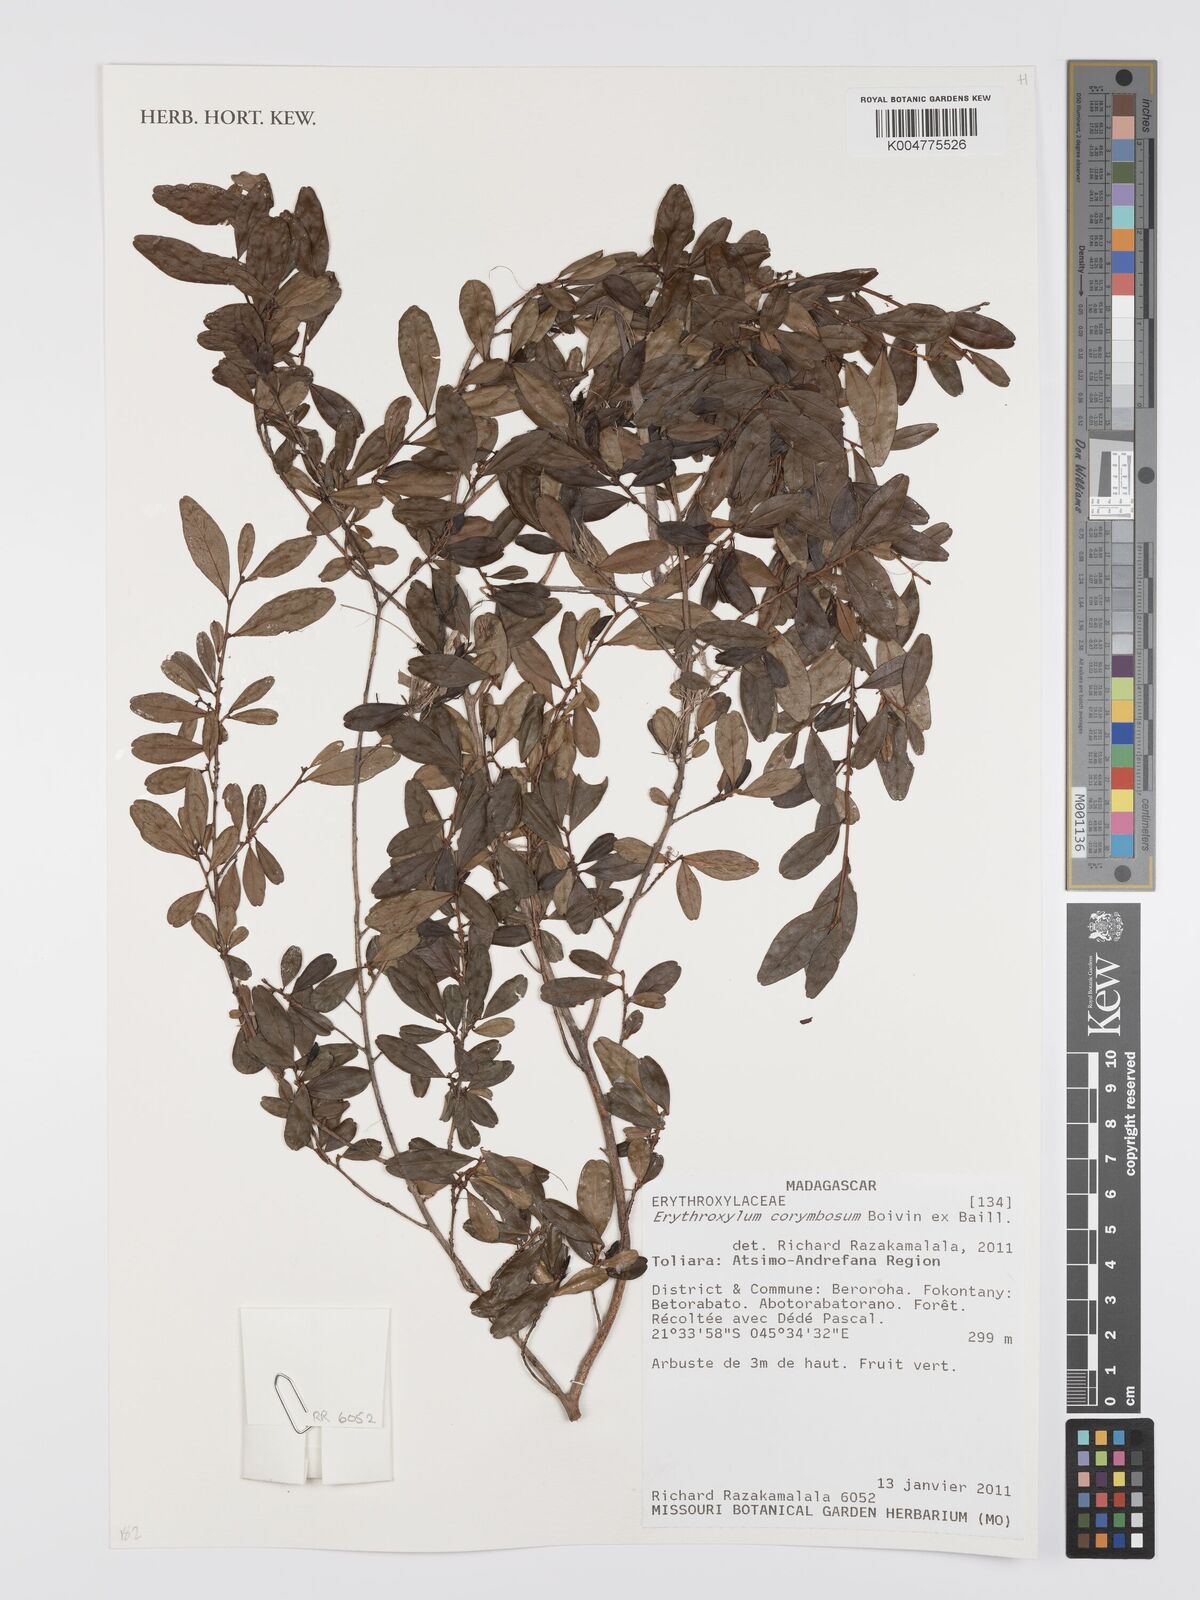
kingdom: Plantae
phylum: Tracheophyta
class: Magnoliopsida
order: Malpighiales
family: Erythroxylaceae
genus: Erythroxylum
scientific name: Erythroxylum corymbosum
